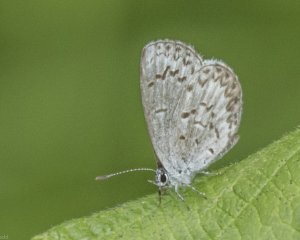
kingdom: Animalia
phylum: Arthropoda
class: Insecta
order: Lepidoptera
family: Lycaenidae
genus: Celastrina
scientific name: Celastrina serotina
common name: Cherry Gall Azure
